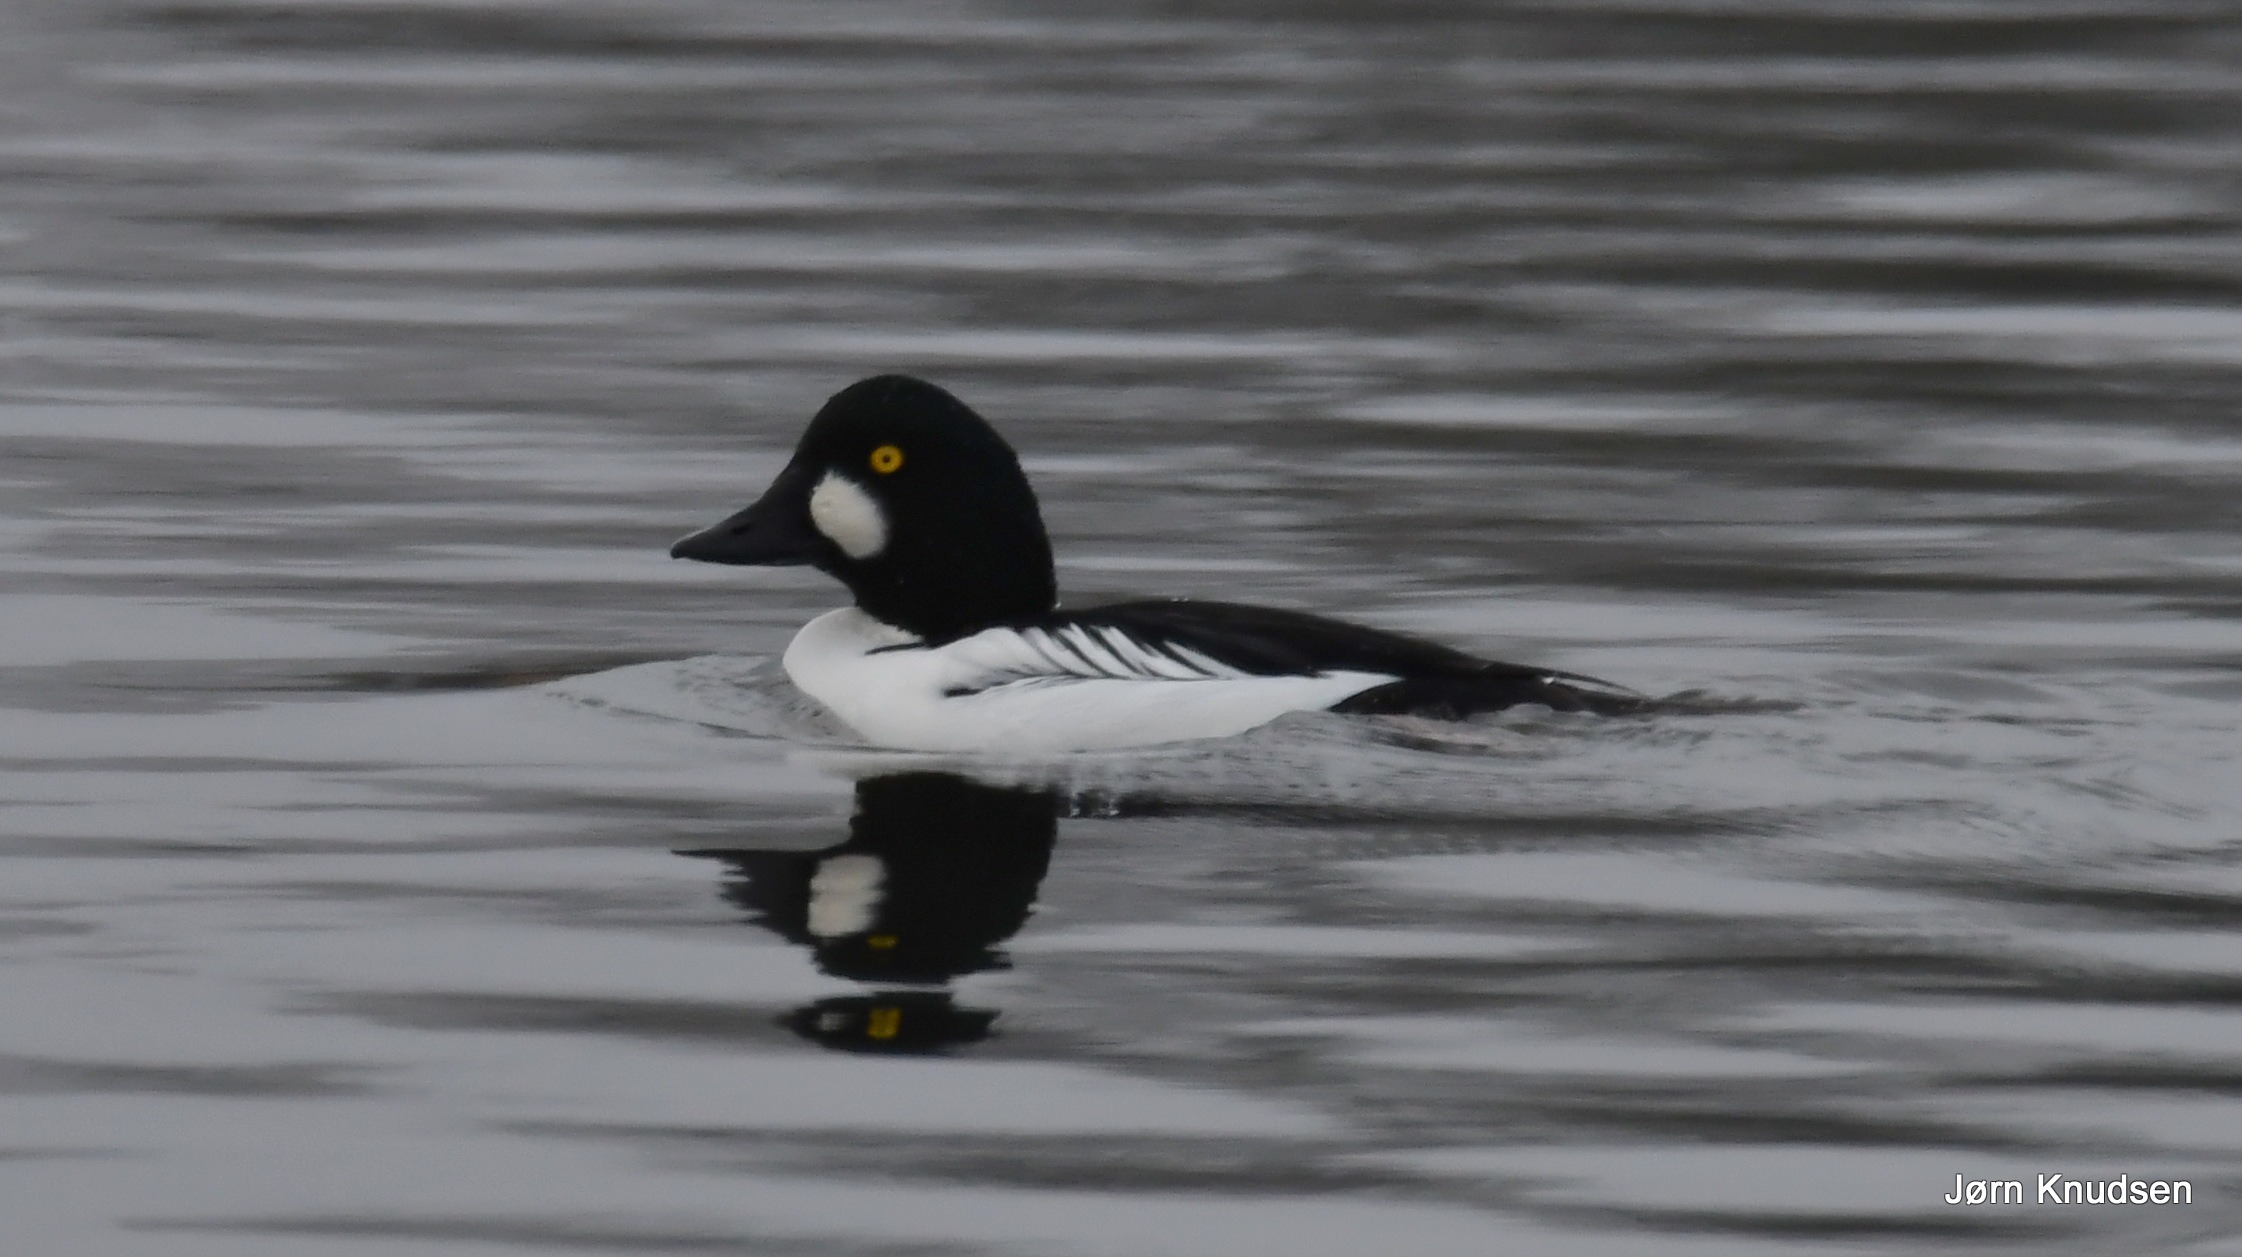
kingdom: Animalia
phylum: Chordata
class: Aves
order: Anseriformes
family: Anatidae
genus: Bucephala
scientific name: Bucephala clangula
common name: Hvinand
